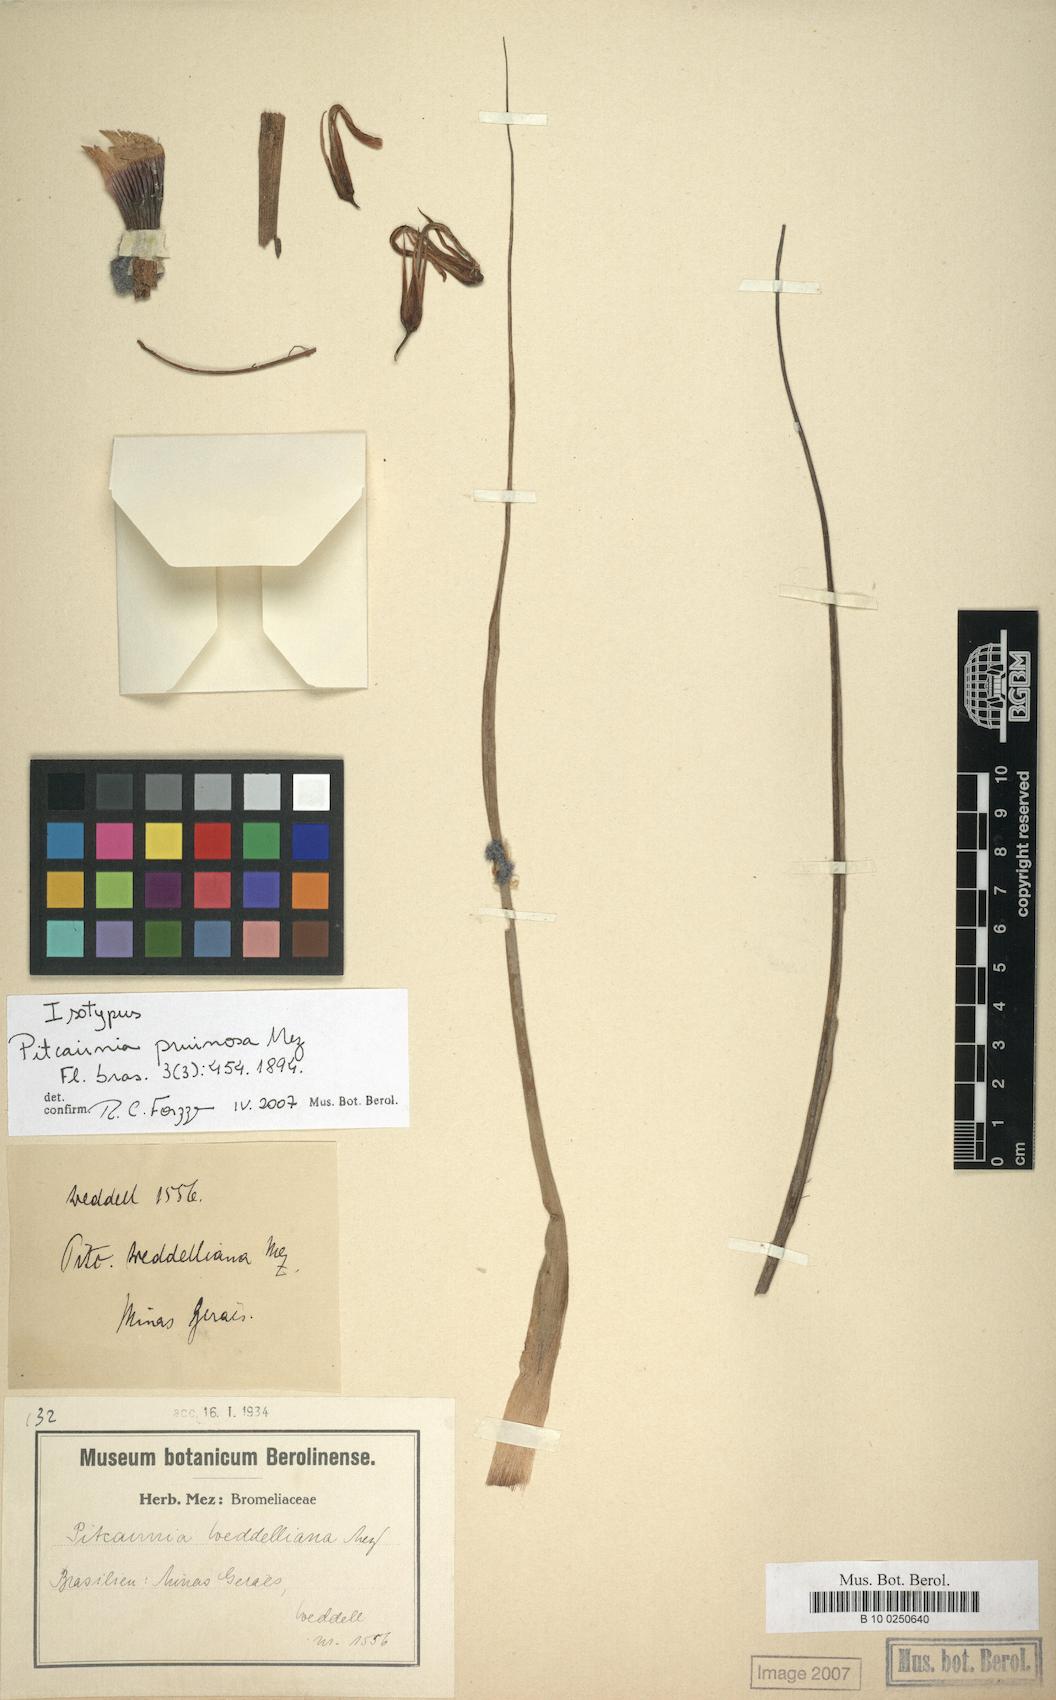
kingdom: Plantae
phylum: Tracheophyta
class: Liliopsida
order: Poales
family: Bromeliaceae
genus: Pitcairnia
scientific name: Pitcairnia flammea
